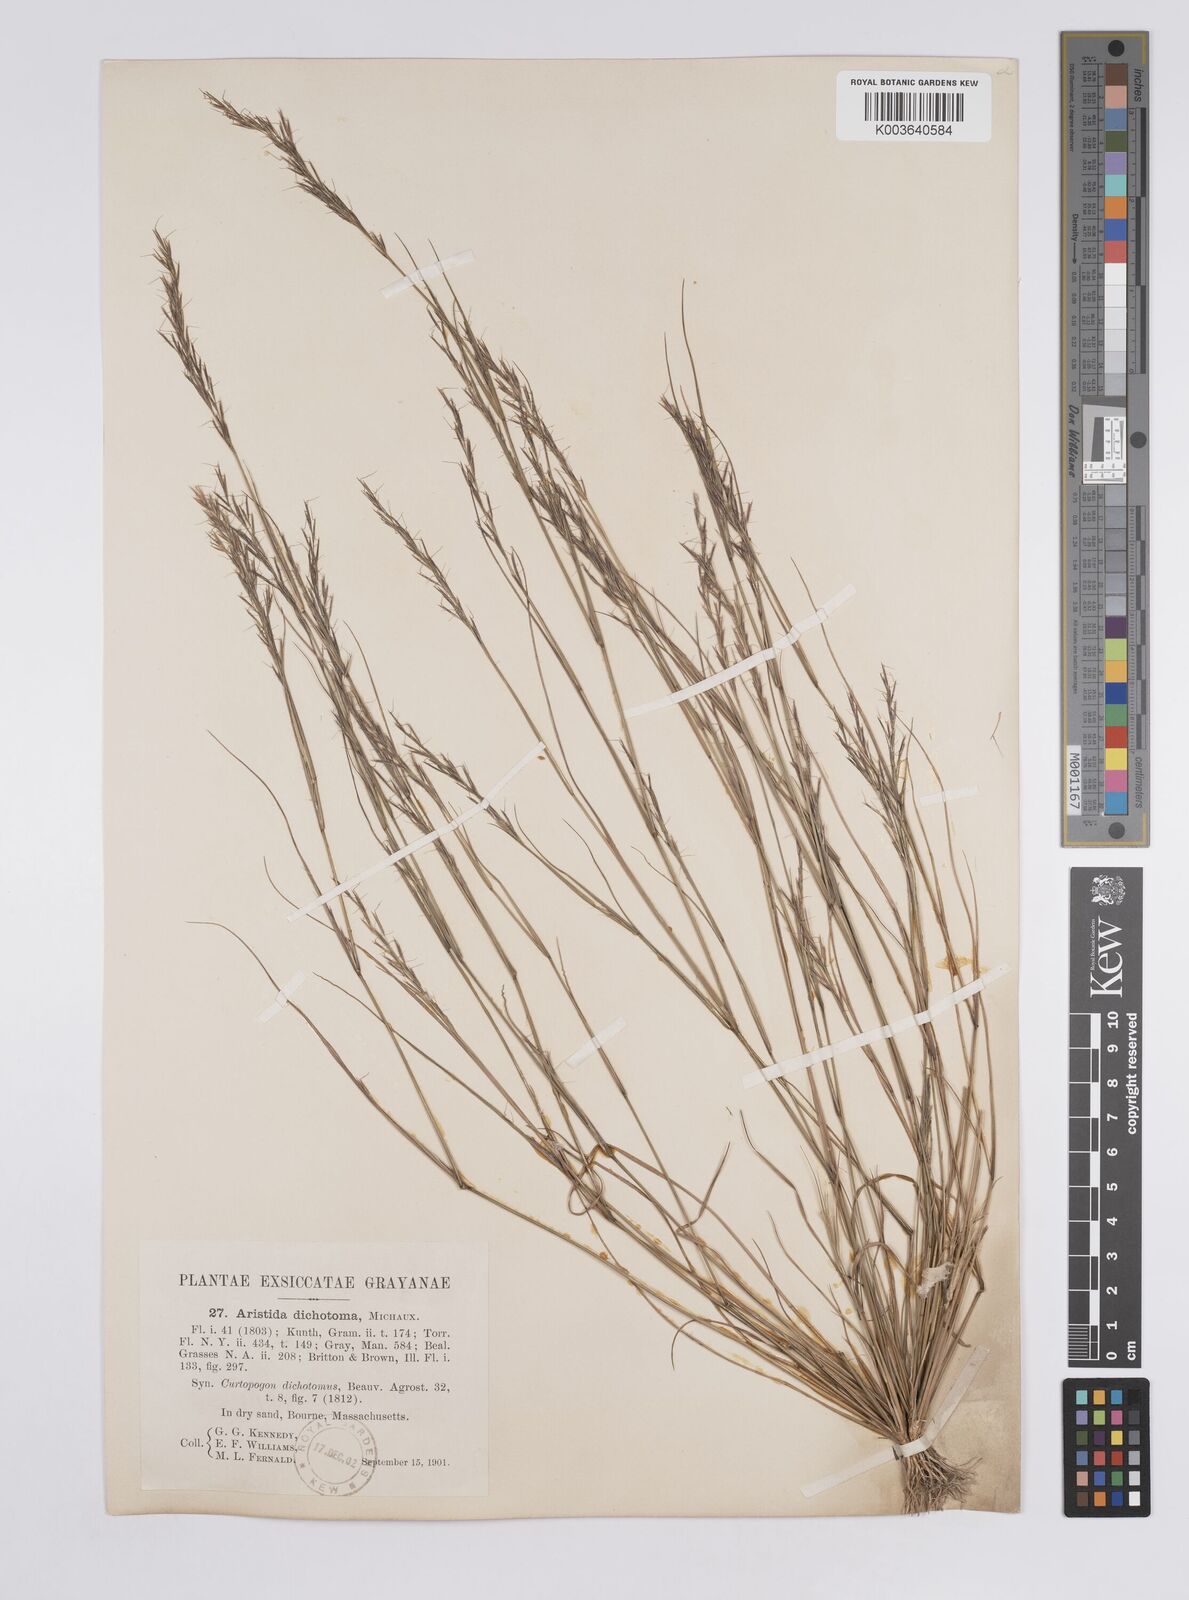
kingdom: Plantae
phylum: Tracheophyta
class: Liliopsida
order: Poales
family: Poaceae
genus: Aristida
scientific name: Aristida dichotoma
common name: Churchmouse three-awn
